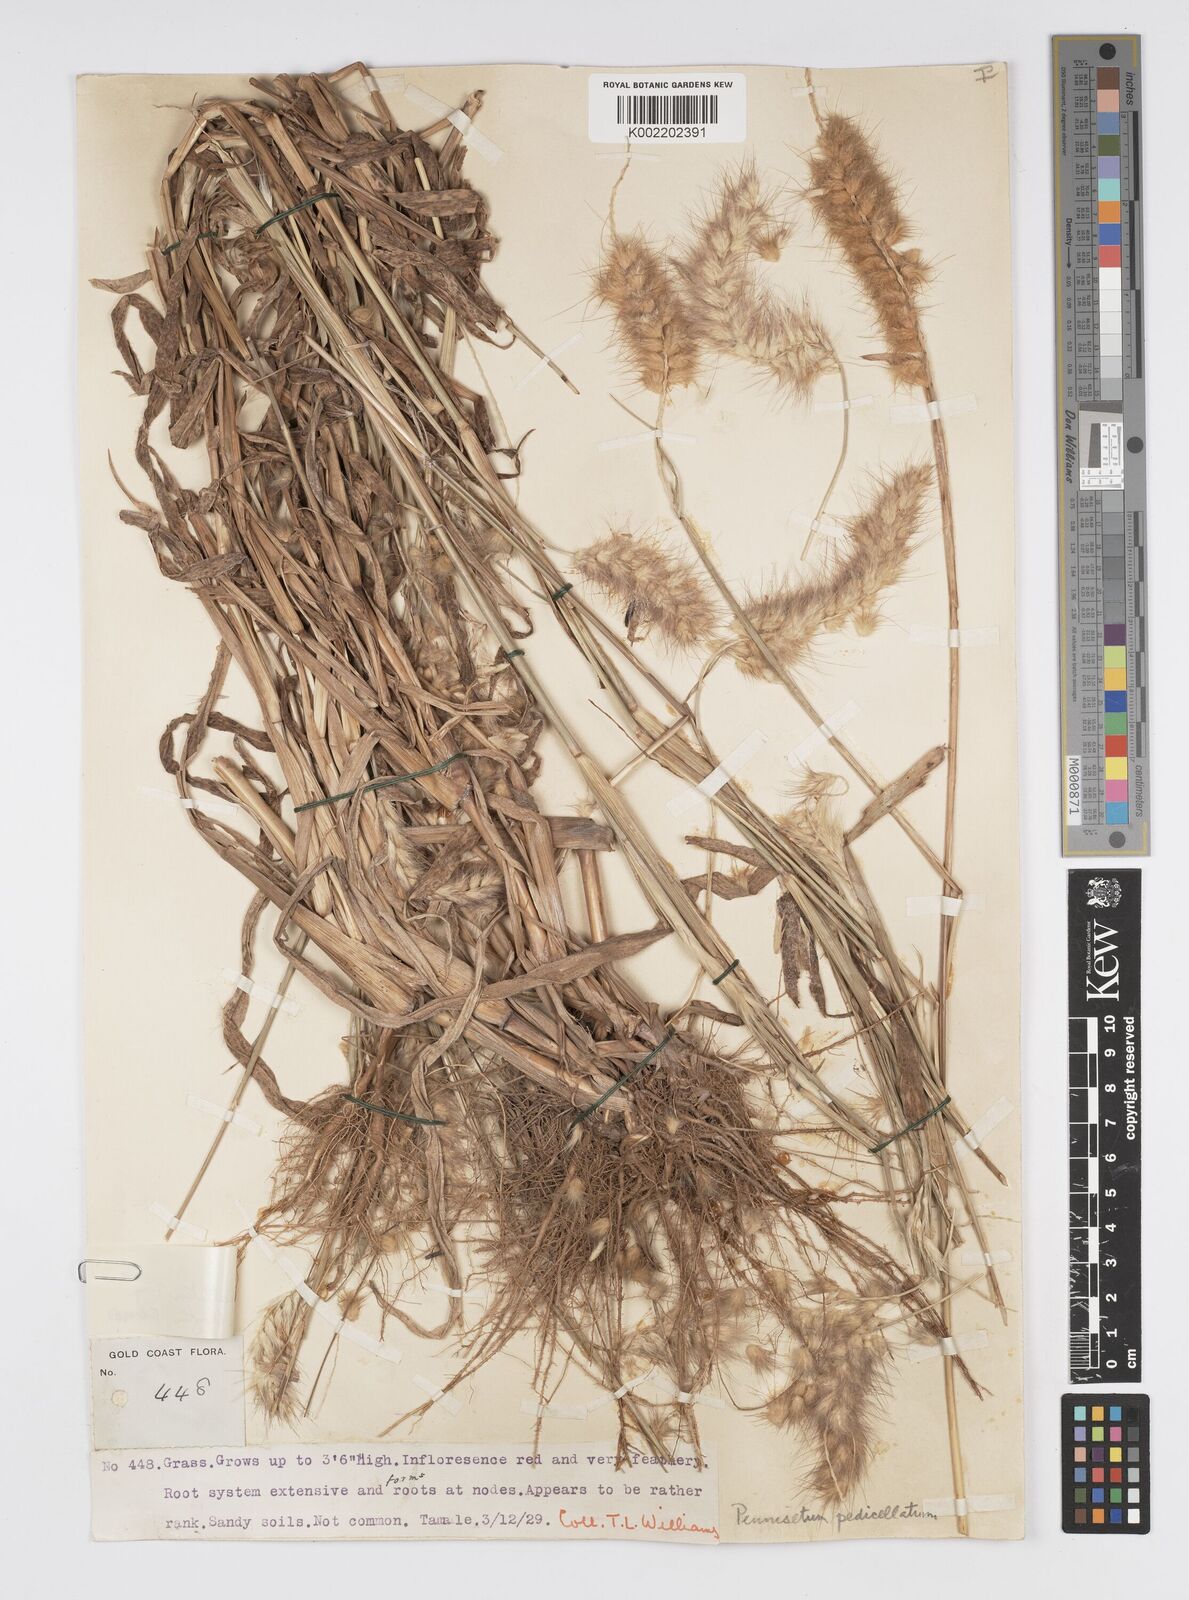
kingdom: Plantae
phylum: Tracheophyta
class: Liliopsida
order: Poales
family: Poaceae
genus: Cenchrus
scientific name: Cenchrus pedicellatus
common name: Hairy fountain grass
